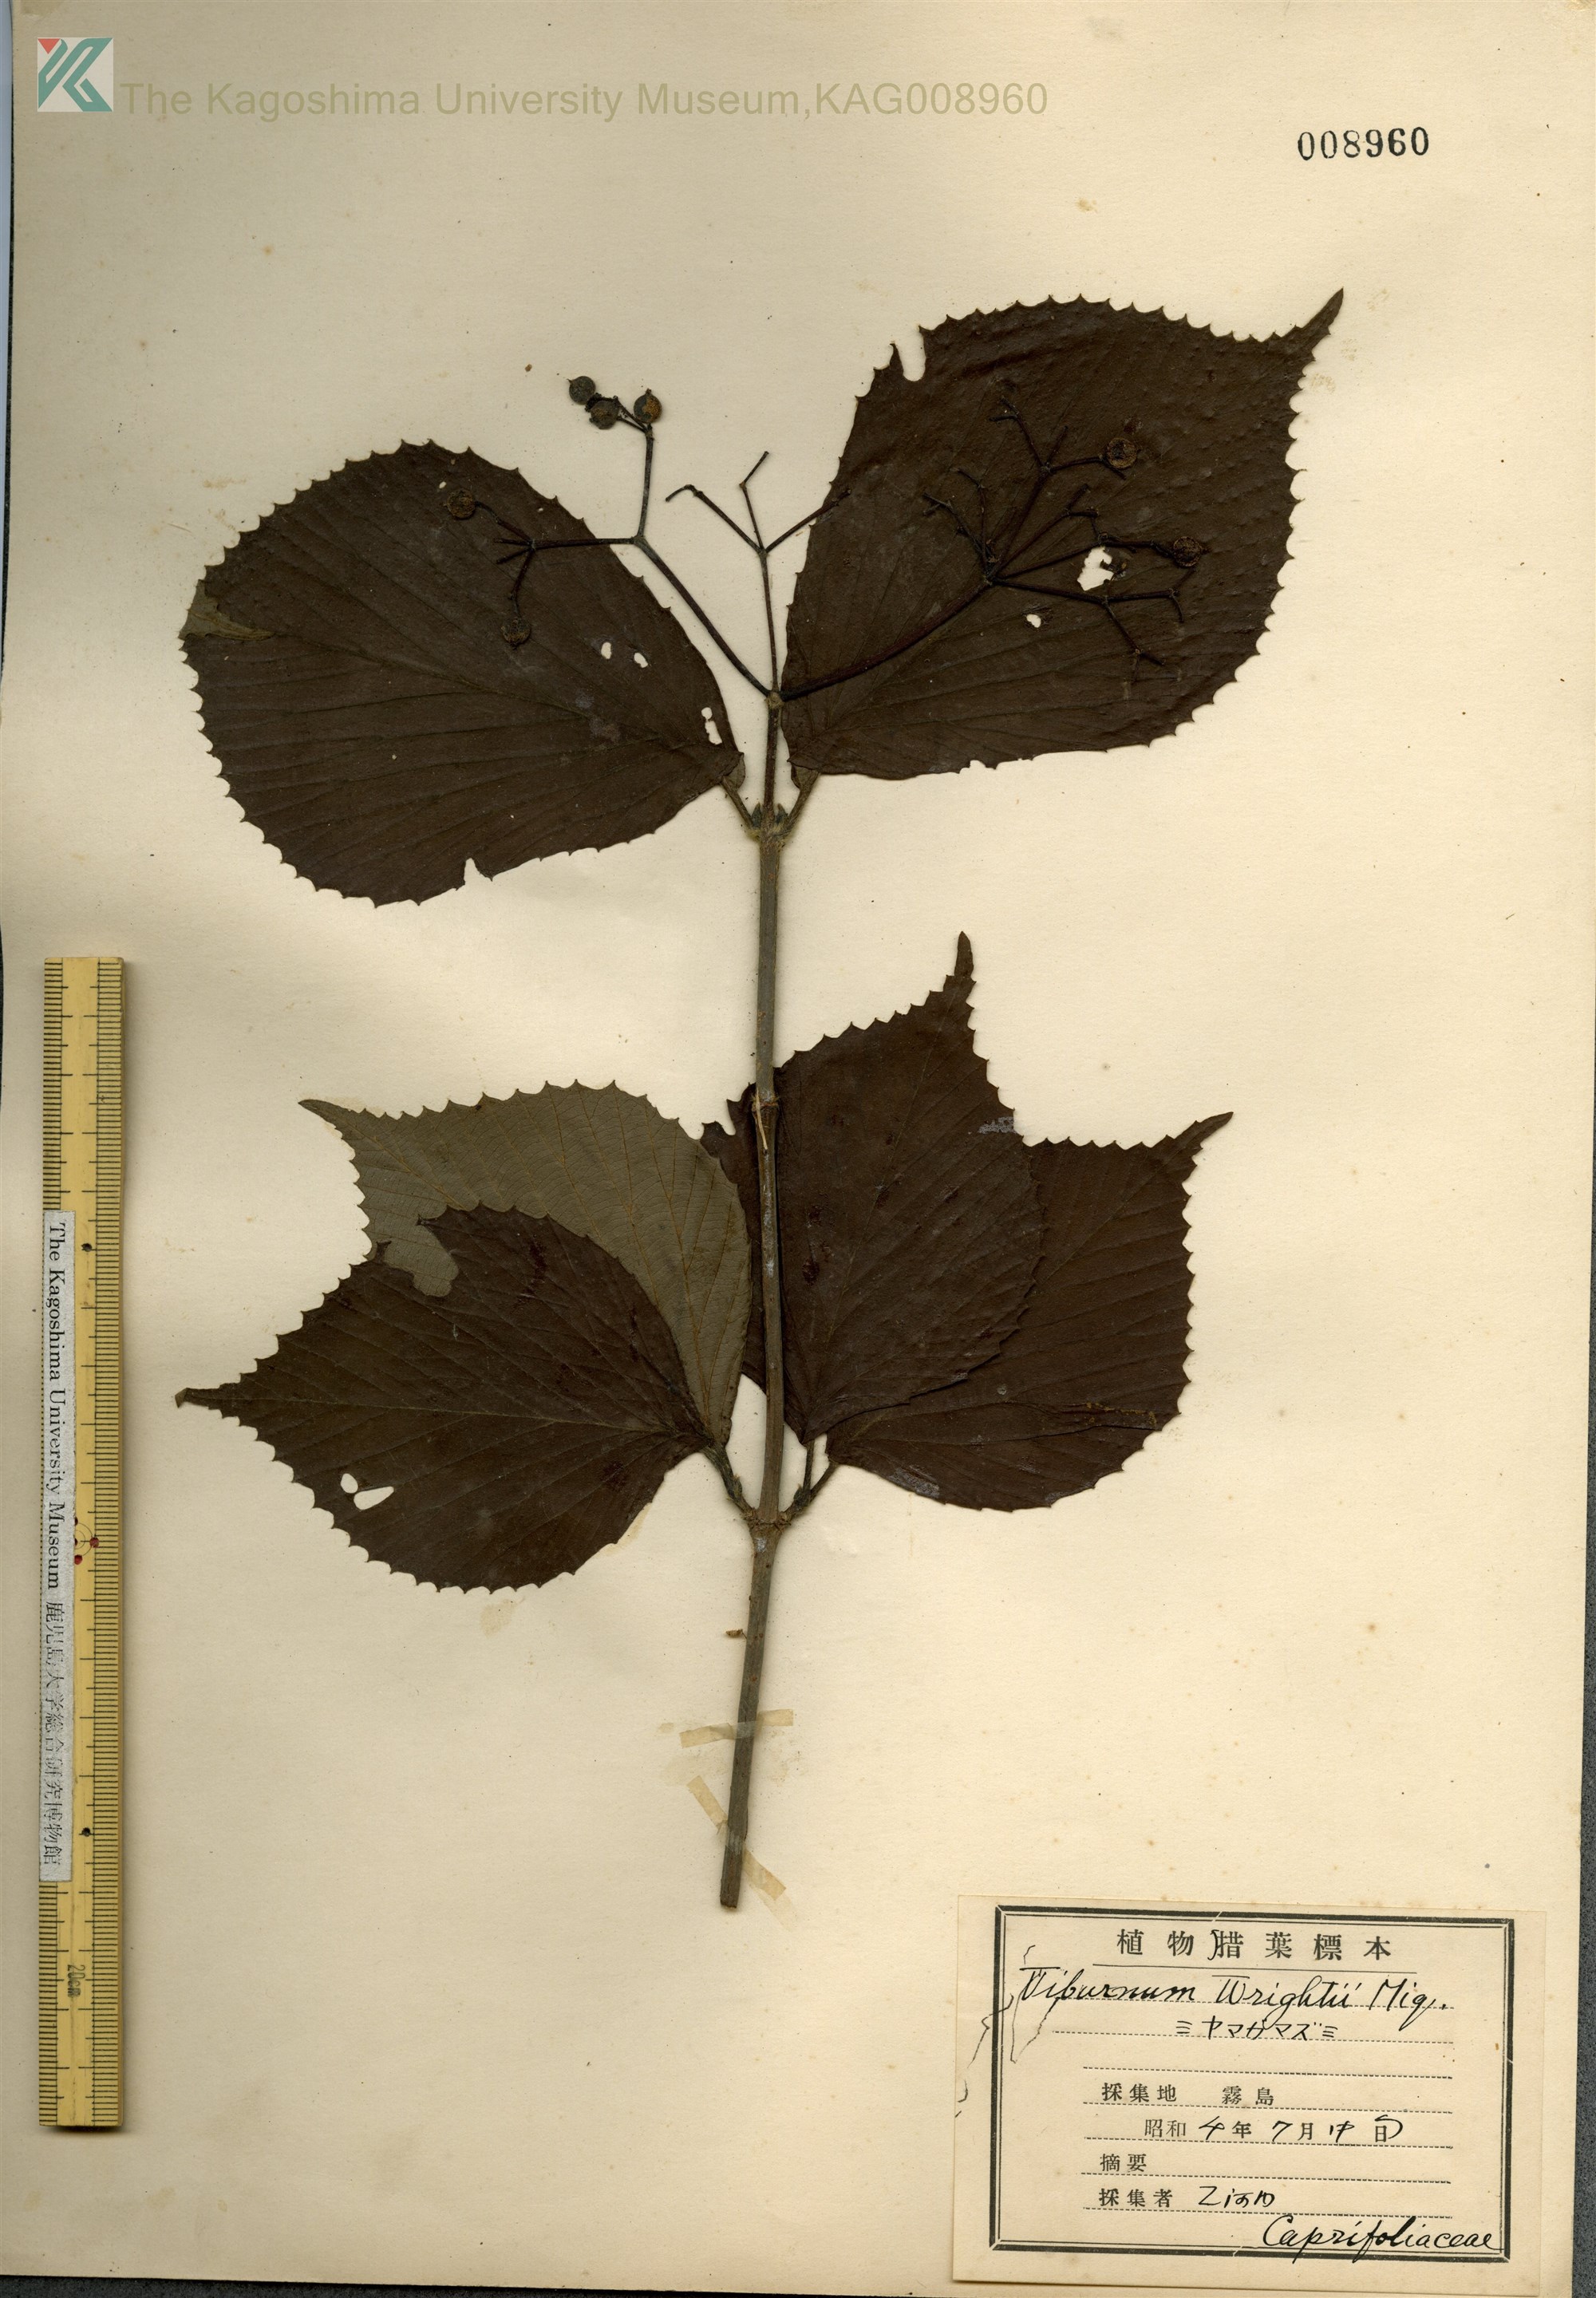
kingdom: Plantae
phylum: Tracheophyta
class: Magnoliopsida
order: Dipsacales
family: Viburnaceae
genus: Viburnum
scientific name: Viburnum wrightii
